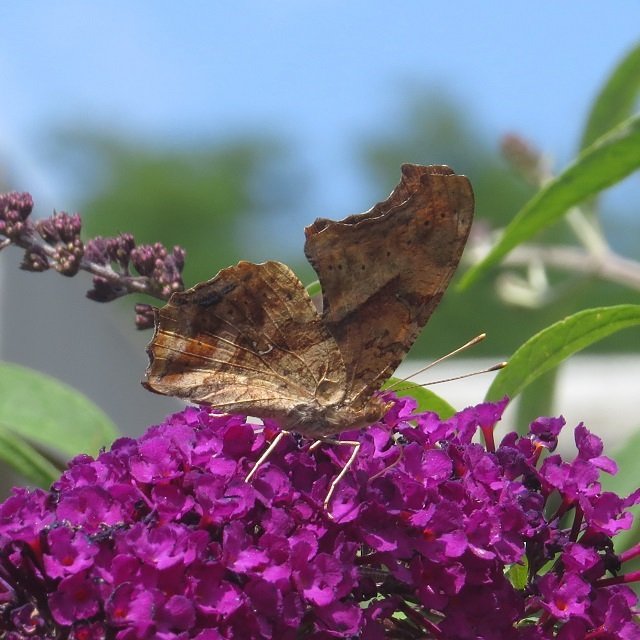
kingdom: Animalia
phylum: Arthropoda
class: Insecta
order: Lepidoptera
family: Nymphalidae
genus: Polygonia
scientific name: Polygonia interrogationis
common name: Question Mark
